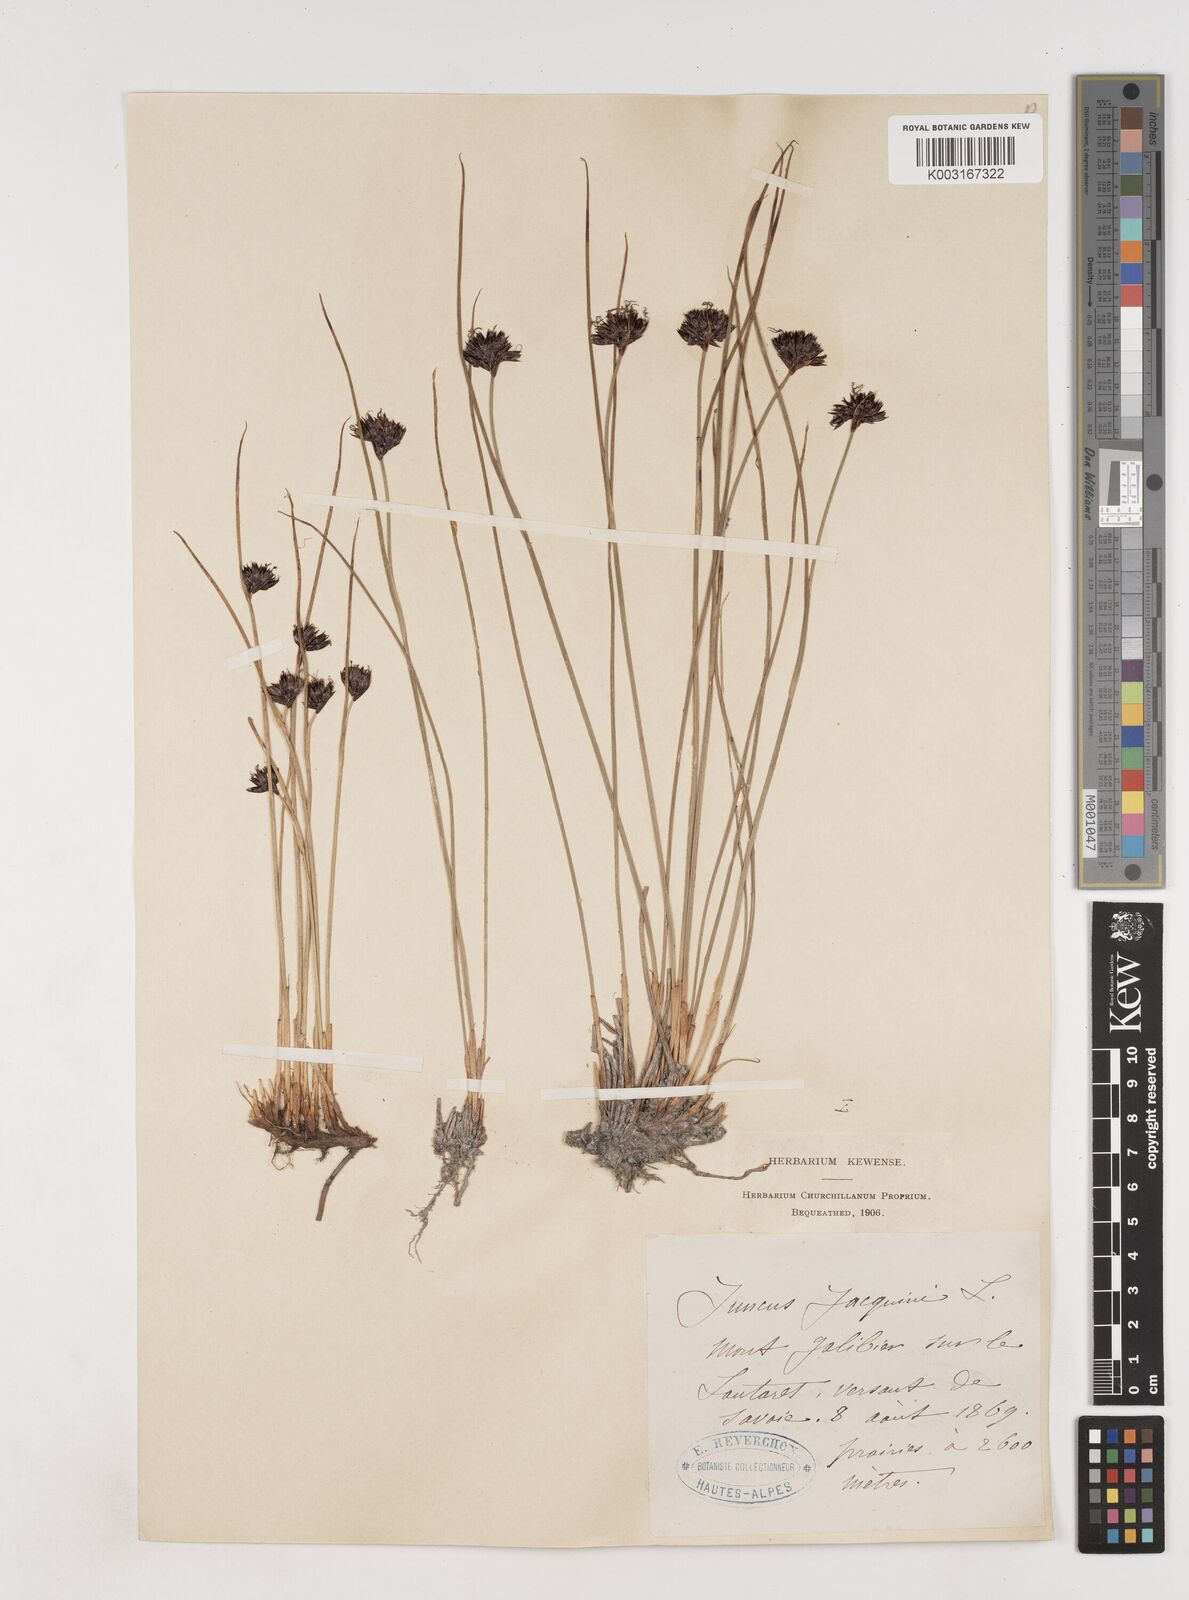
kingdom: Plantae
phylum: Tracheophyta
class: Liliopsida
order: Poales
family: Juncaceae
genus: Juncus
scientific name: Juncus jacquinii
